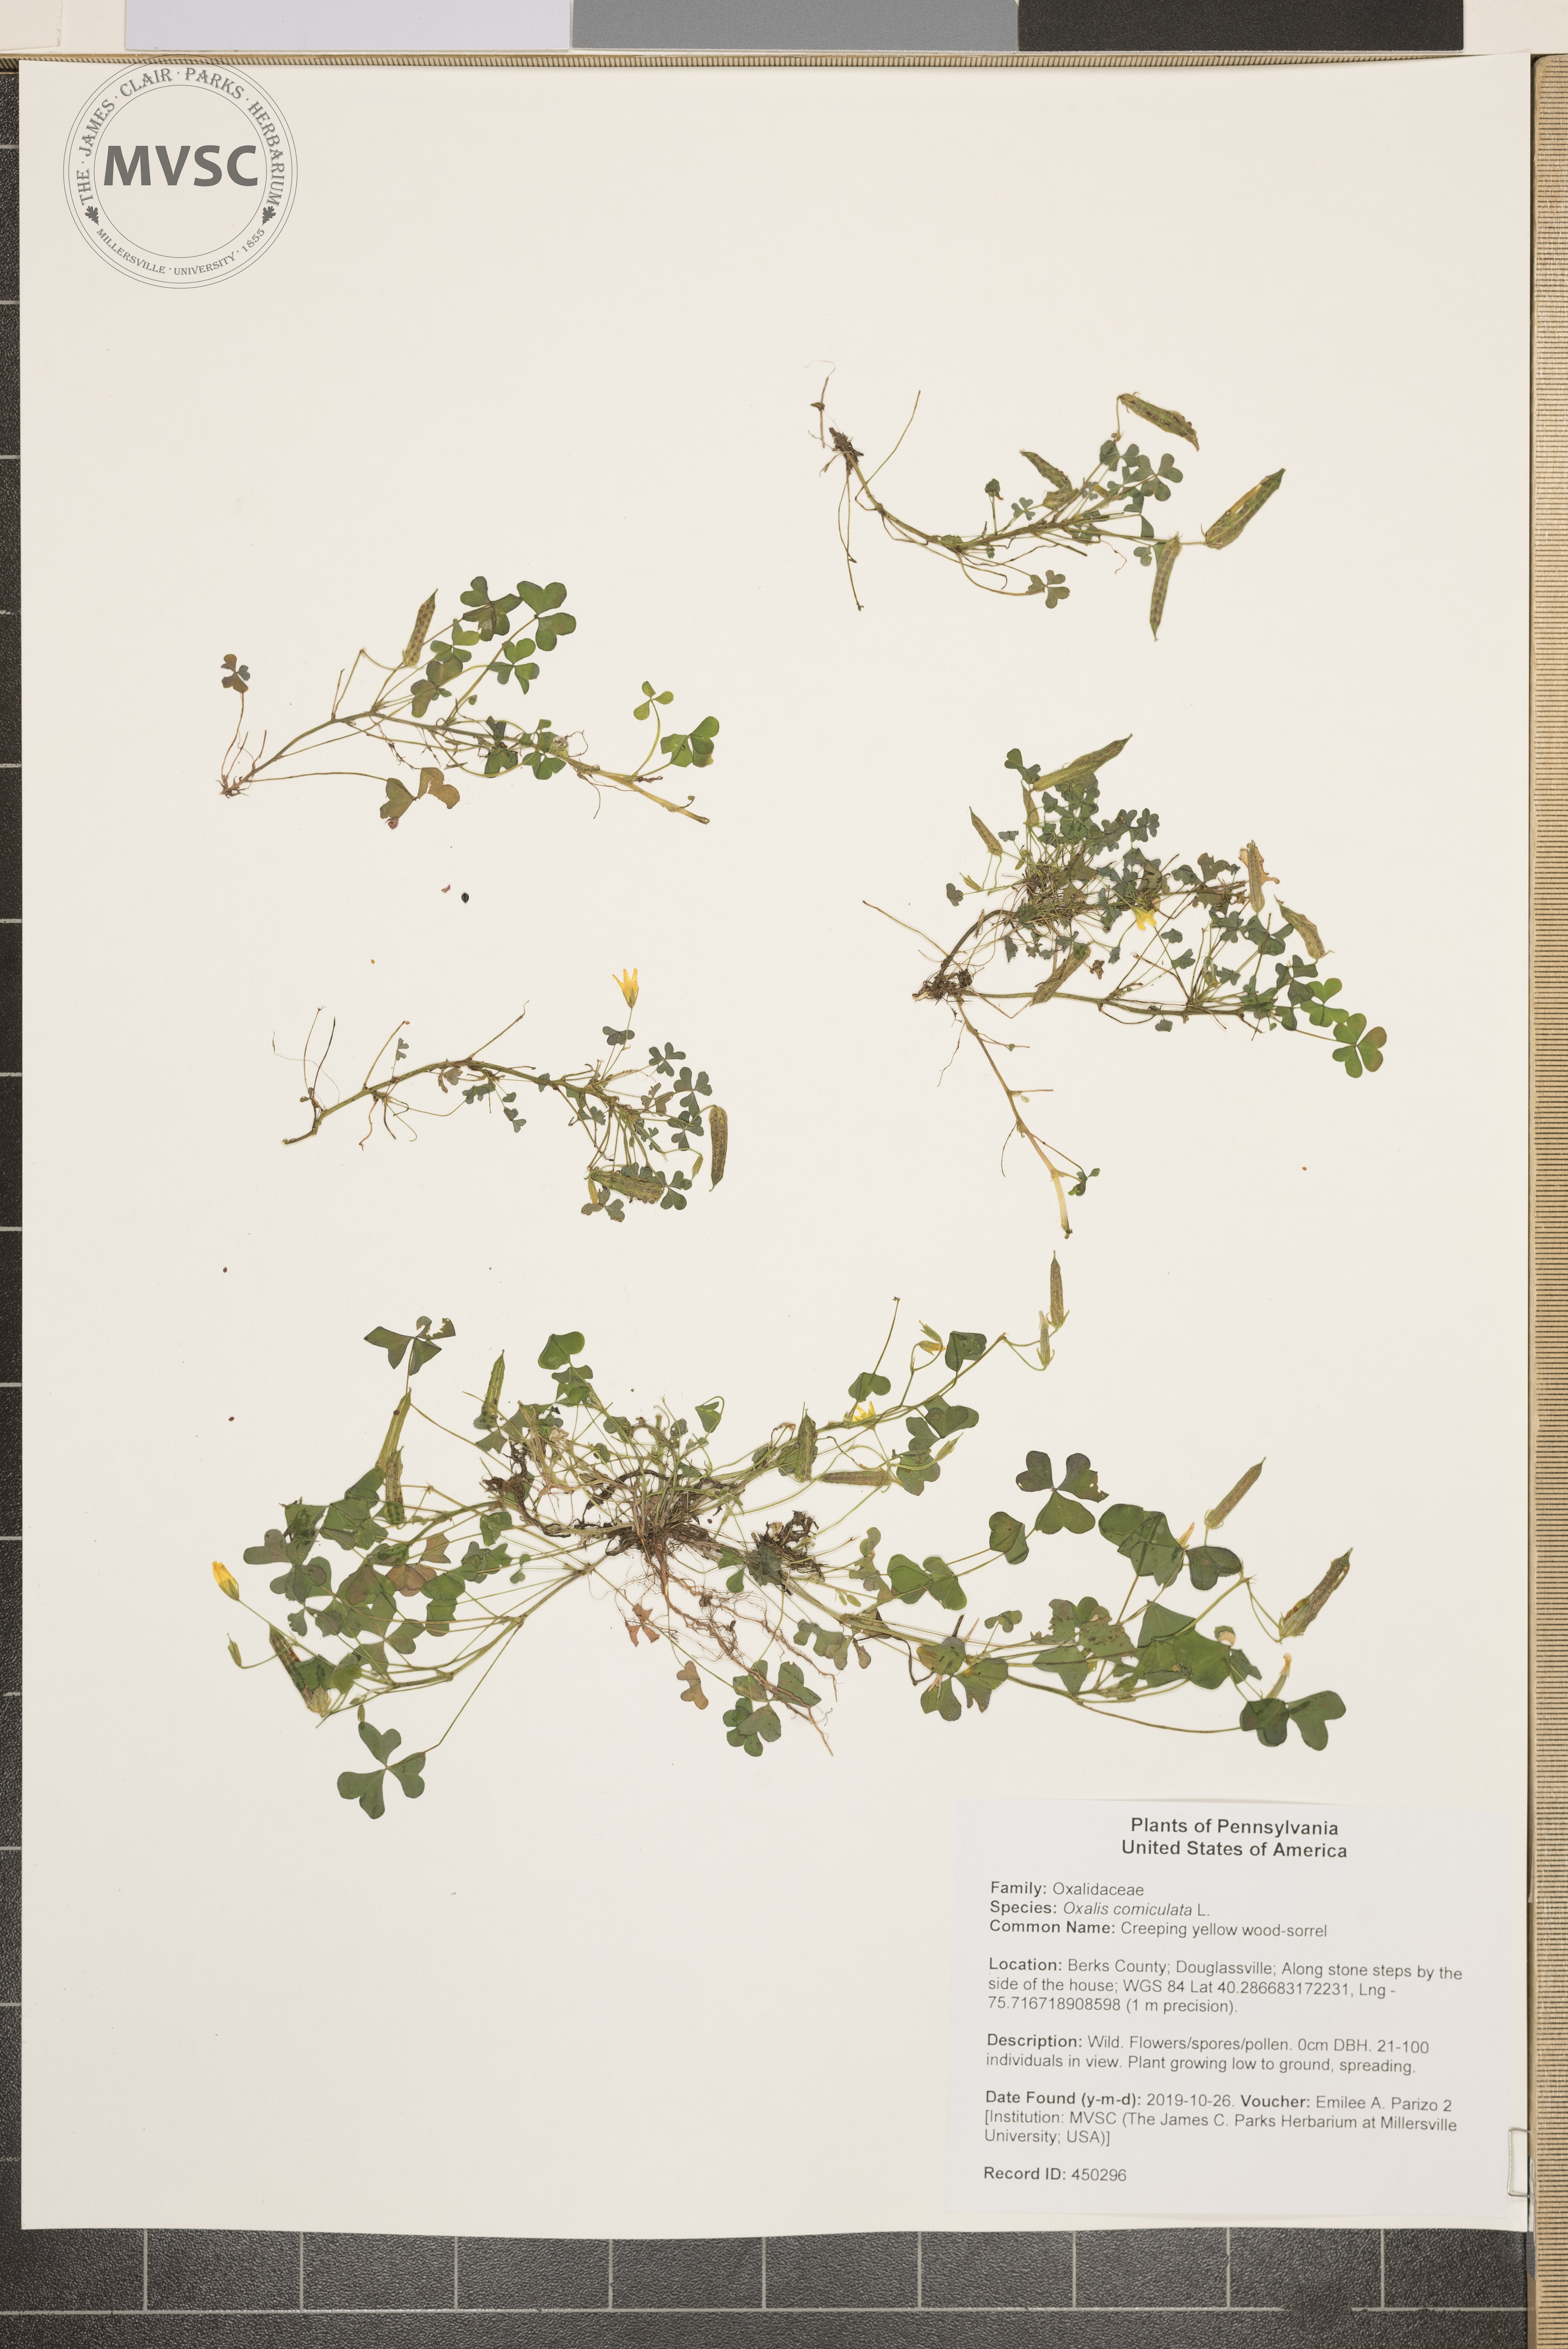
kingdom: Plantae
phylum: Tracheophyta
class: Magnoliopsida
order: Oxalidales
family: Oxalidaceae
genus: Oxalis
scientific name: Oxalis corniculata
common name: Creeping yellow wood-sorrel
